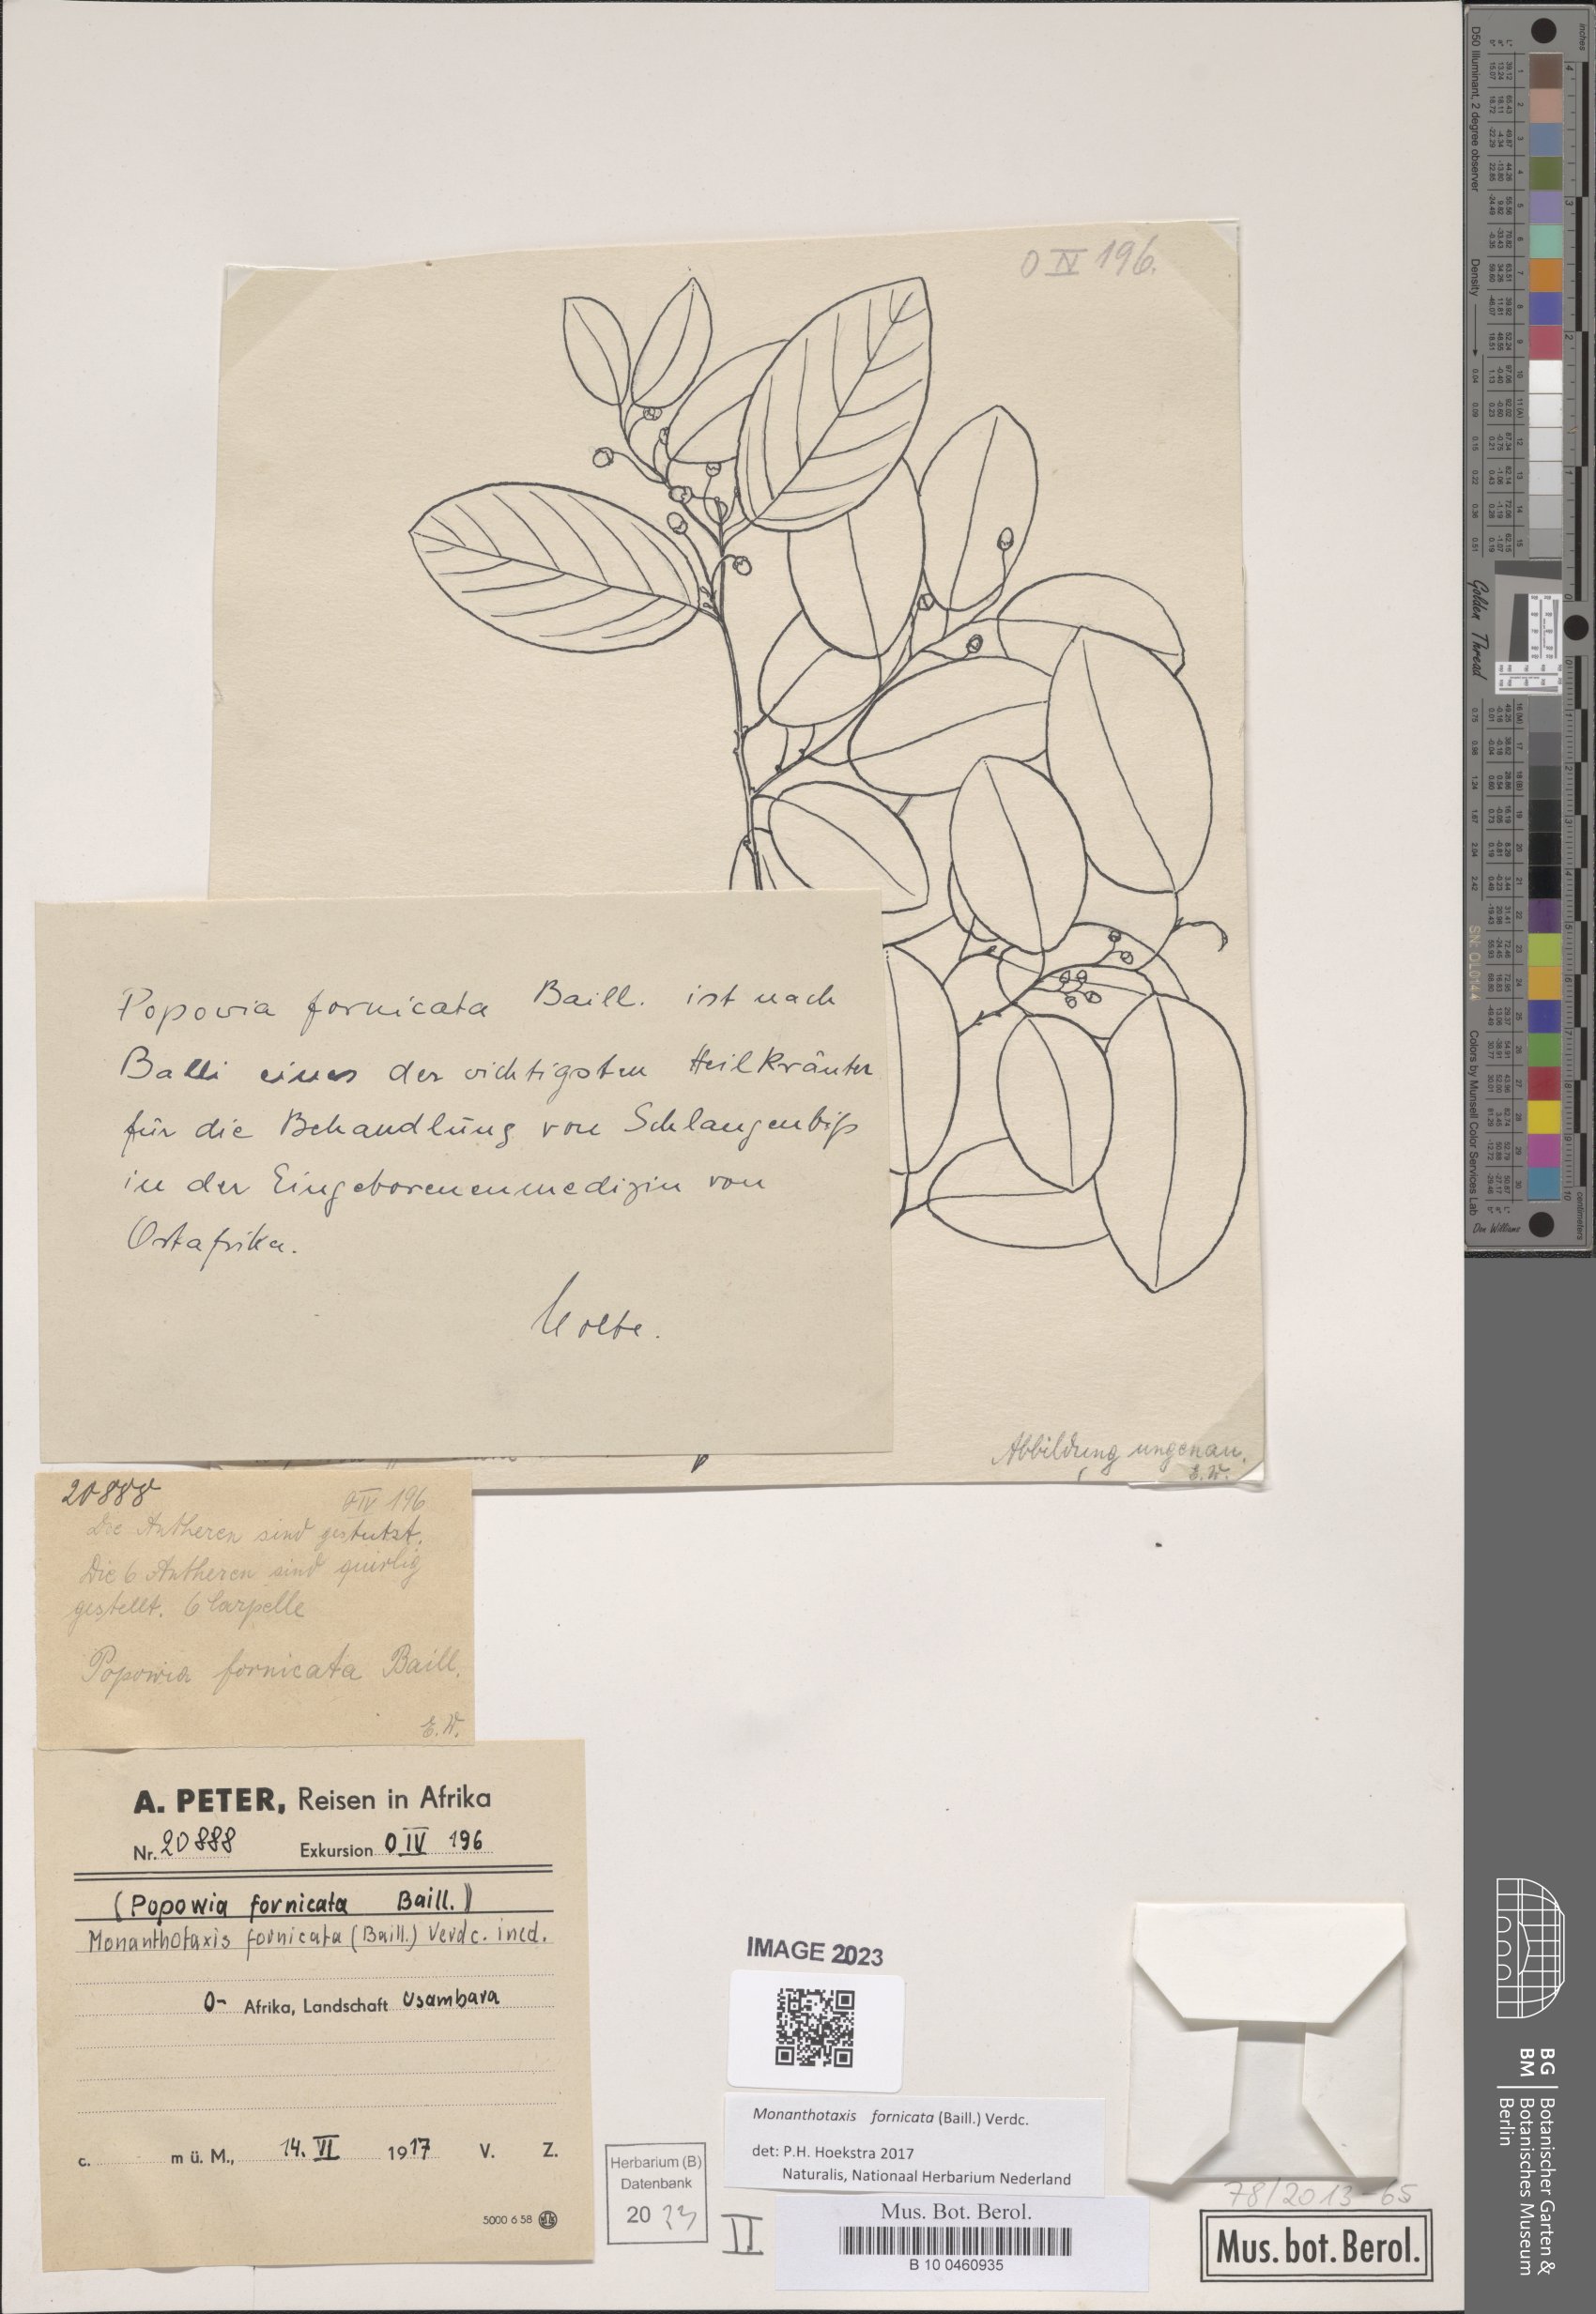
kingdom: Plantae
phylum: Tracheophyta
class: Magnoliopsida
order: Magnoliales
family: Annonaceae
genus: Monanthotaxis
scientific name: Monanthotaxis fornicata
